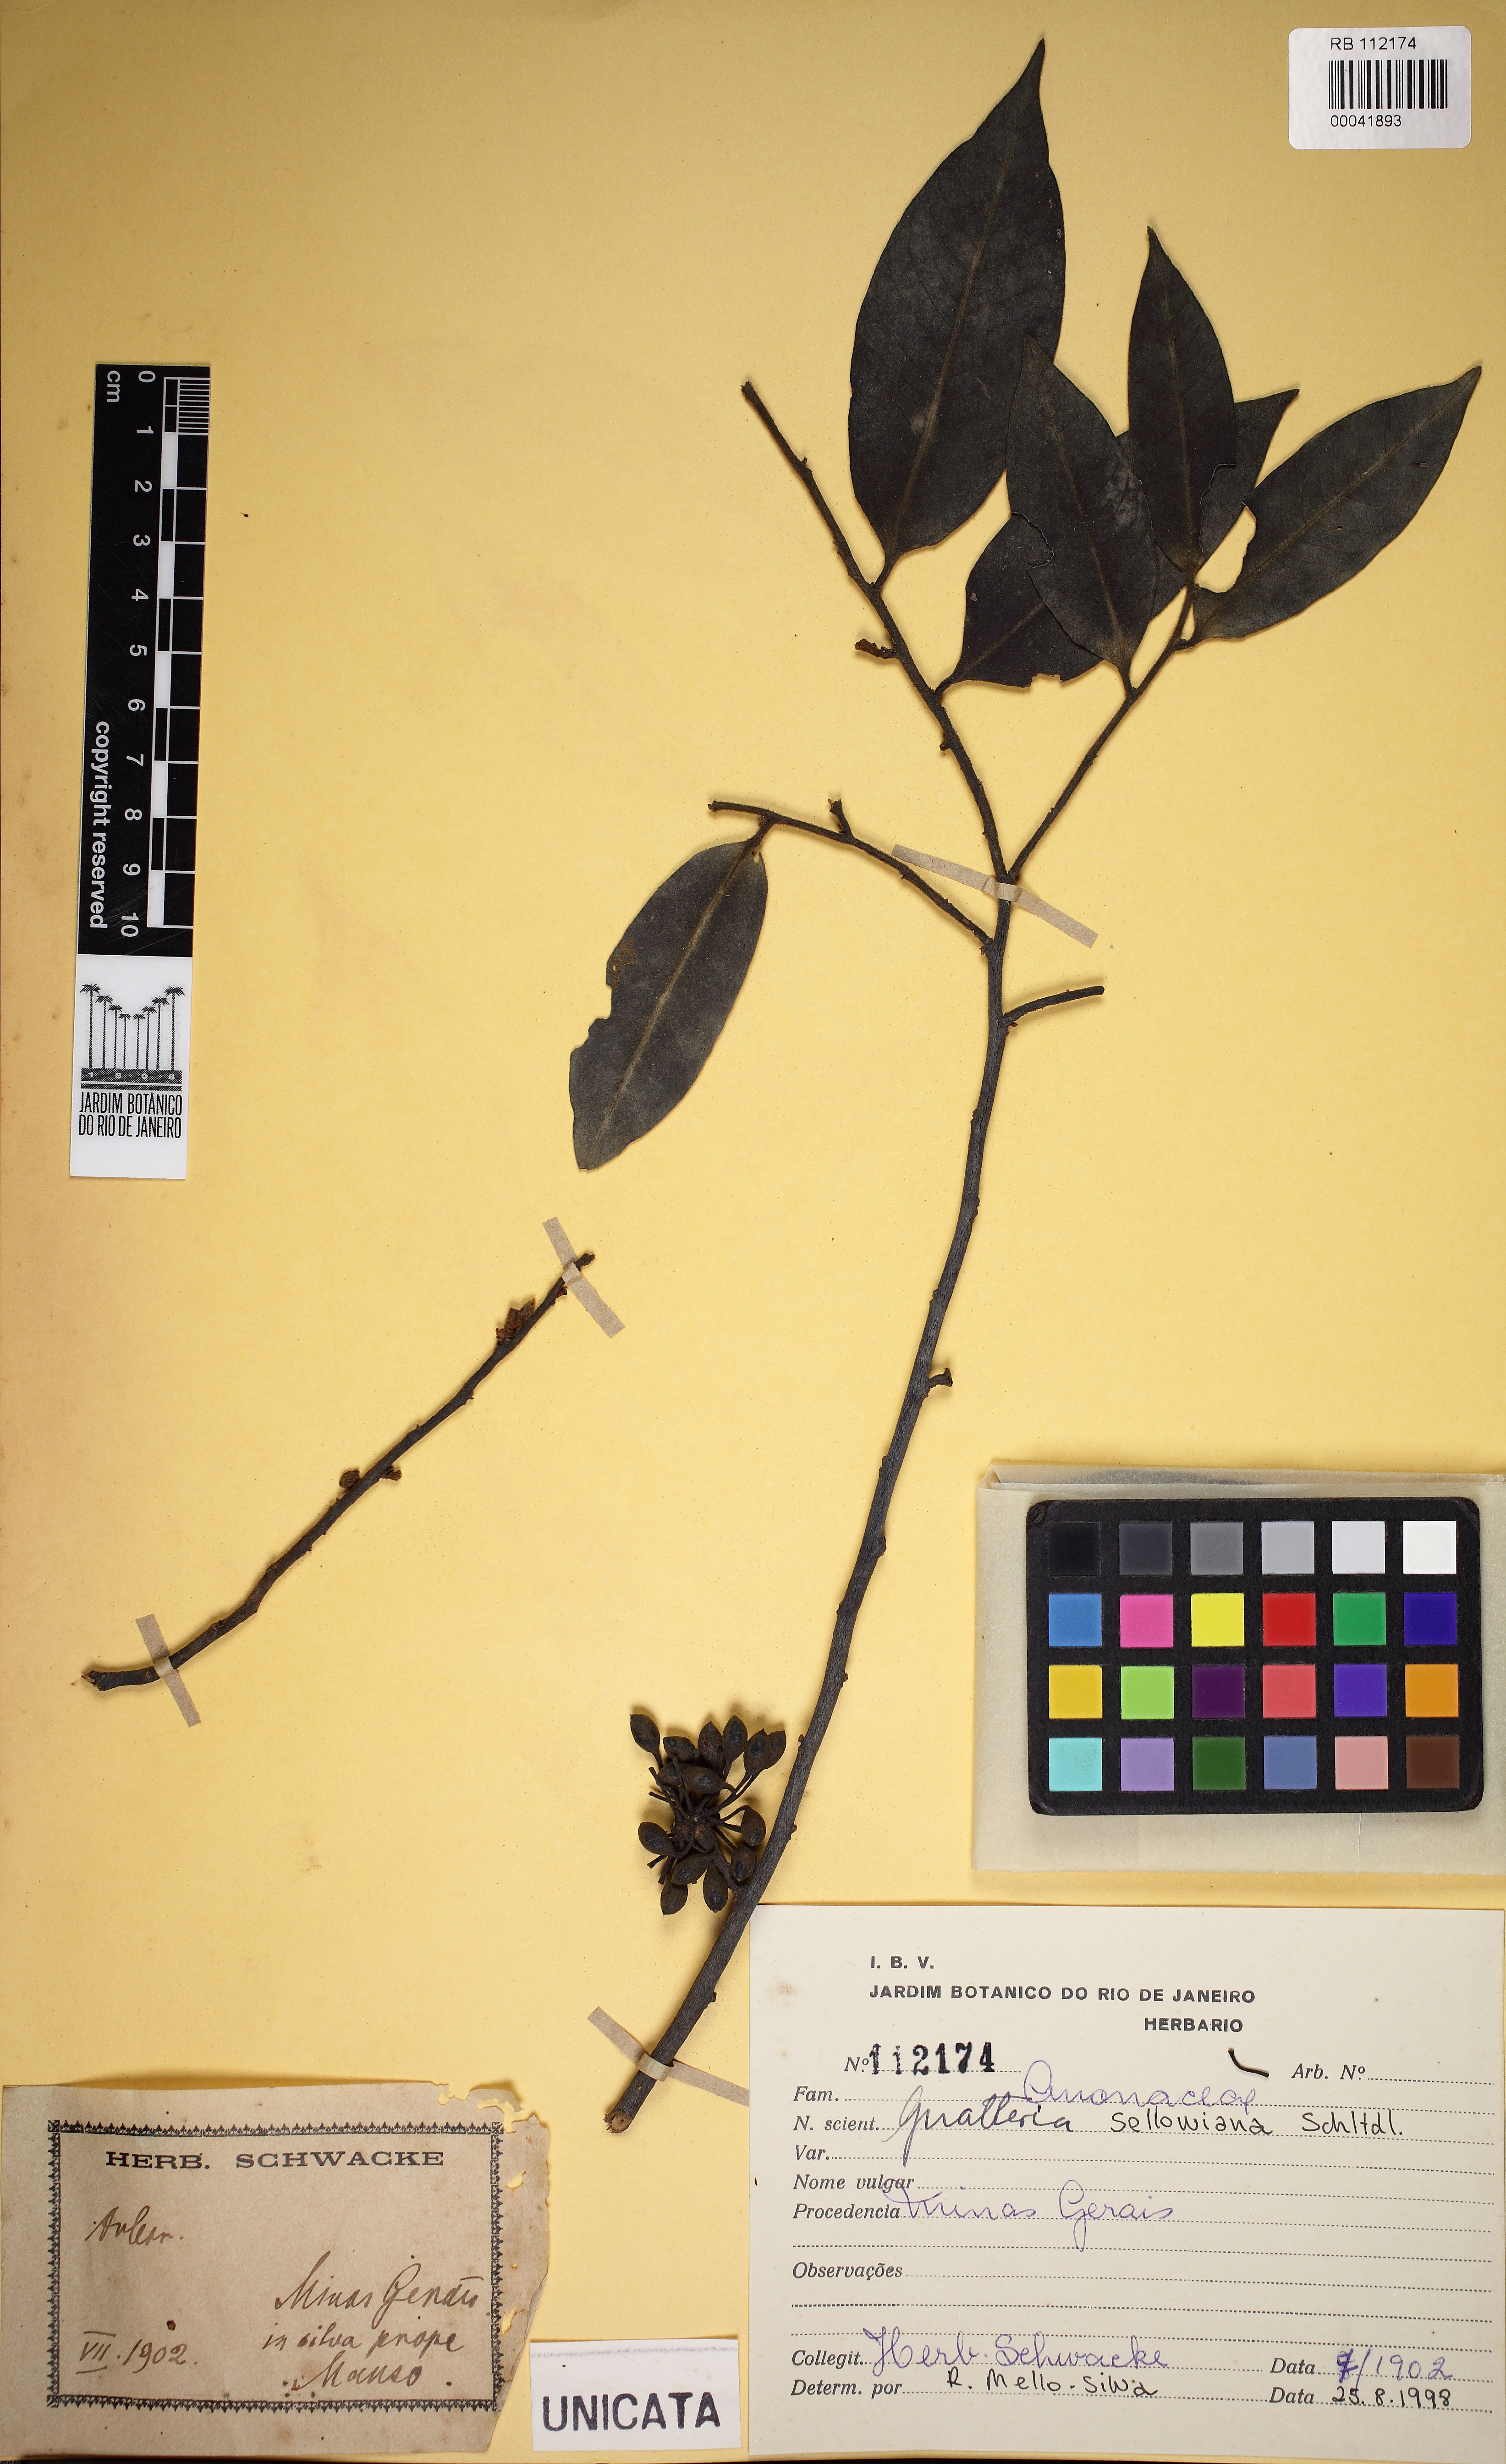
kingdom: Plantae
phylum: Tracheophyta
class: Magnoliopsida
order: Magnoliales
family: Annonaceae
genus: Guatteria
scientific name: Guatteria sellowiana
